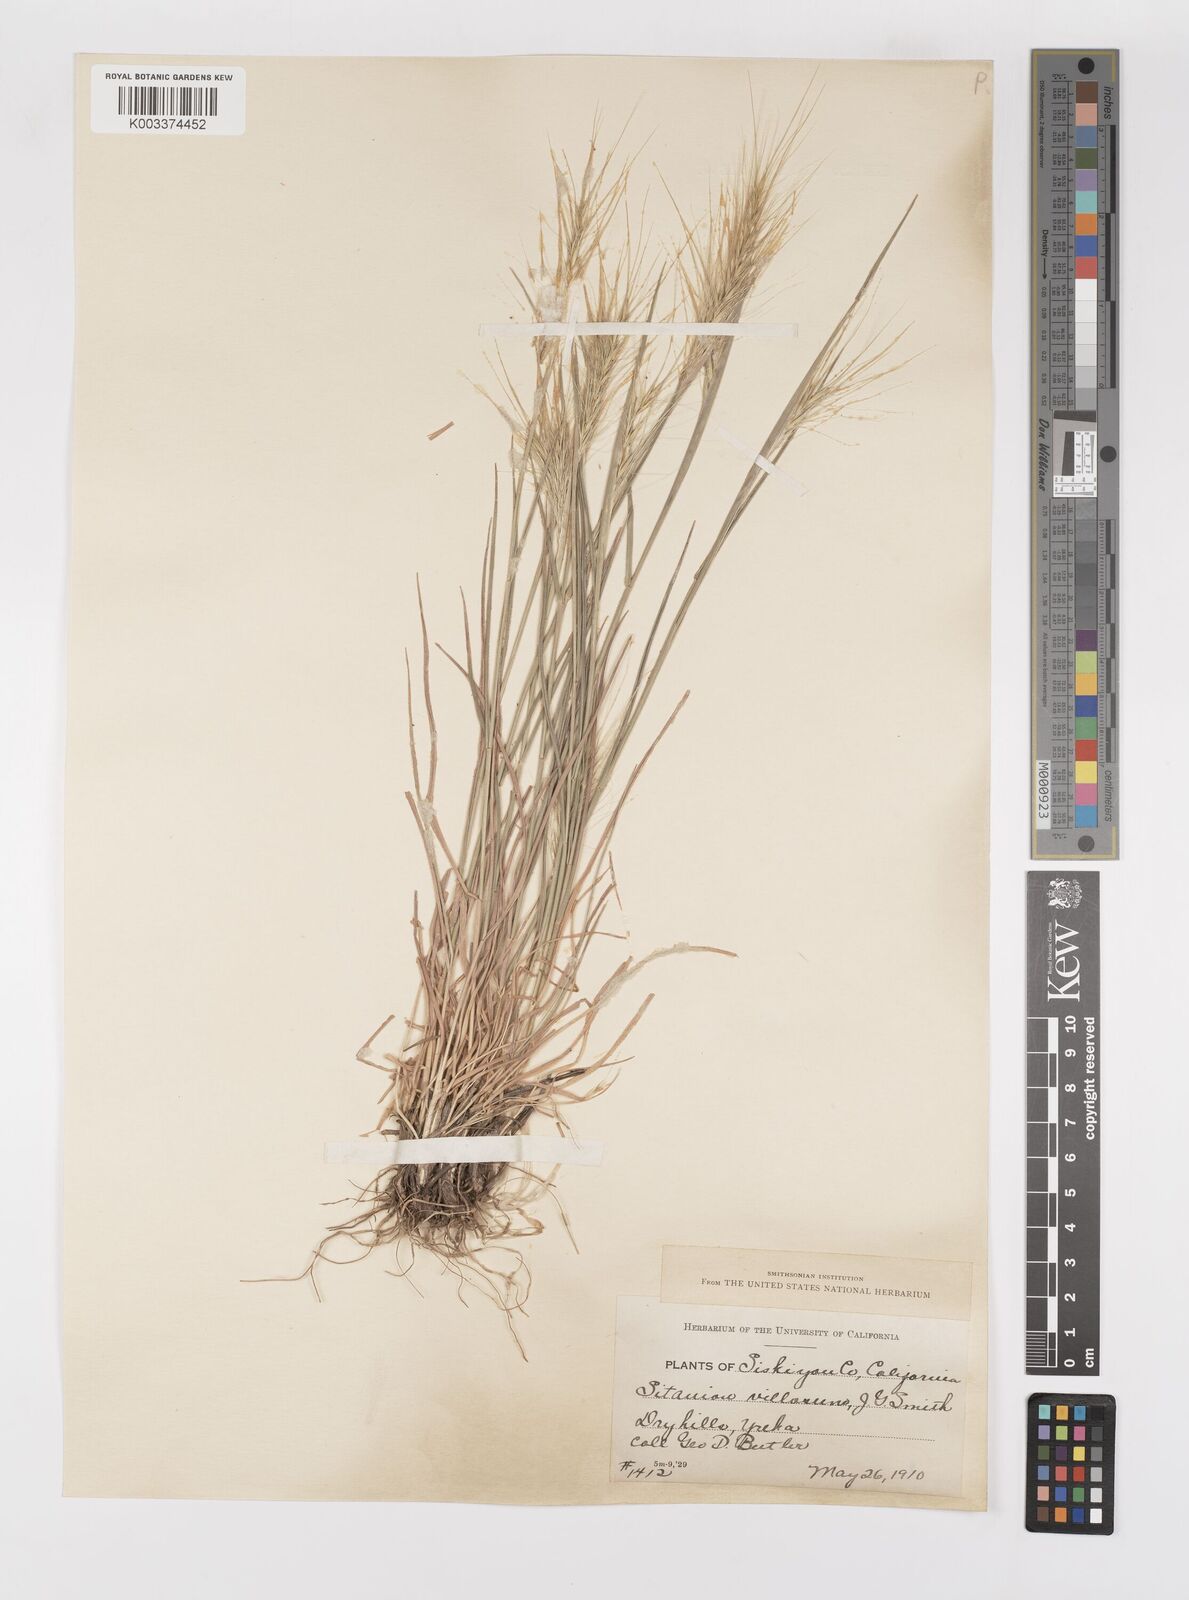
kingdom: Plantae
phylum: Tracheophyta
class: Liliopsida
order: Poales
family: Poaceae
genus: Elymus
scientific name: Elymus multisetus
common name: Big squirreltail
